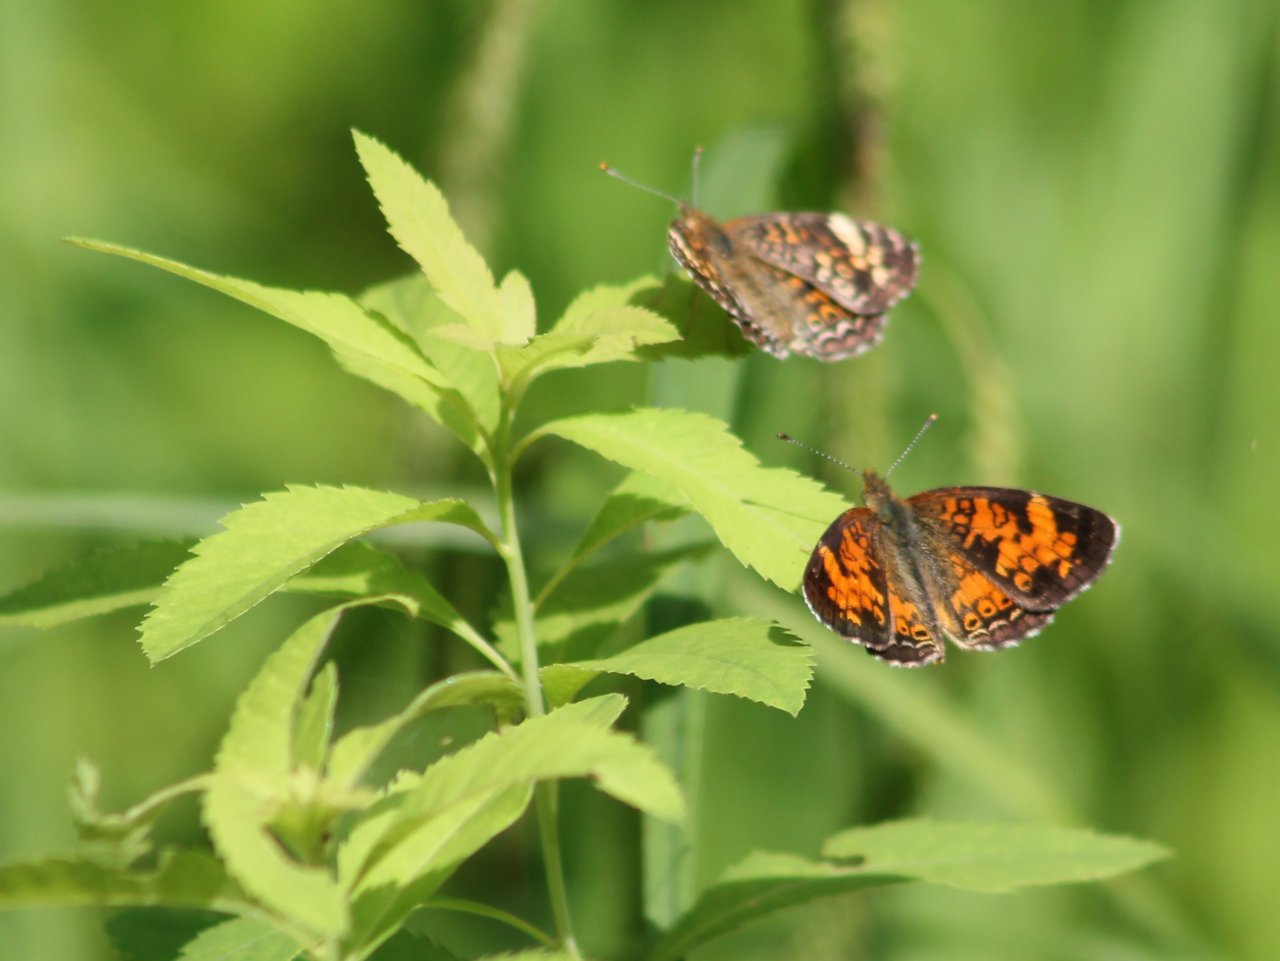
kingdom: Animalia
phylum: Arthropoda
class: Insecta
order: Lepidoptera
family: Nymphalidae
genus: Phyciodes
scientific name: Phyciodes tharos
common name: Northern Crescent
